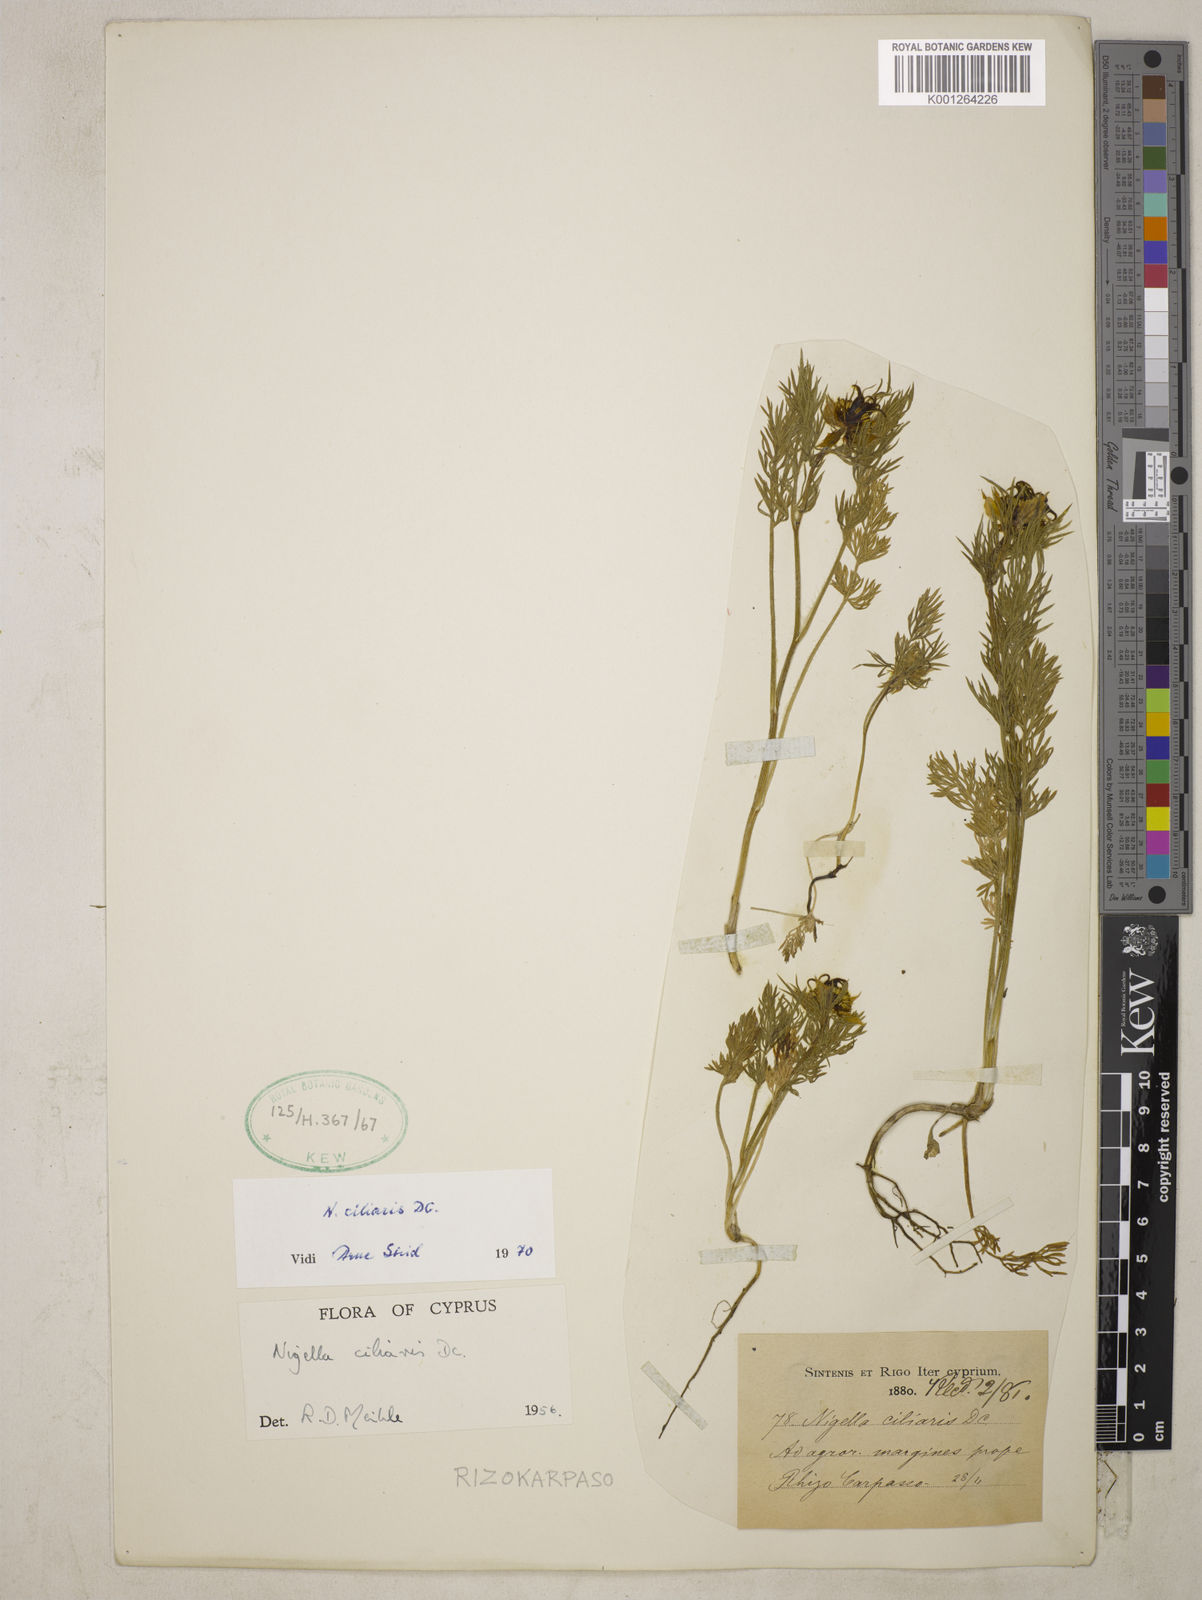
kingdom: Plantae
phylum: Tracheophyta
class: Magnoliopsida
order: Ranunculales
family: Ranunculaceae
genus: Nigella
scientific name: Nigella ciliaris
